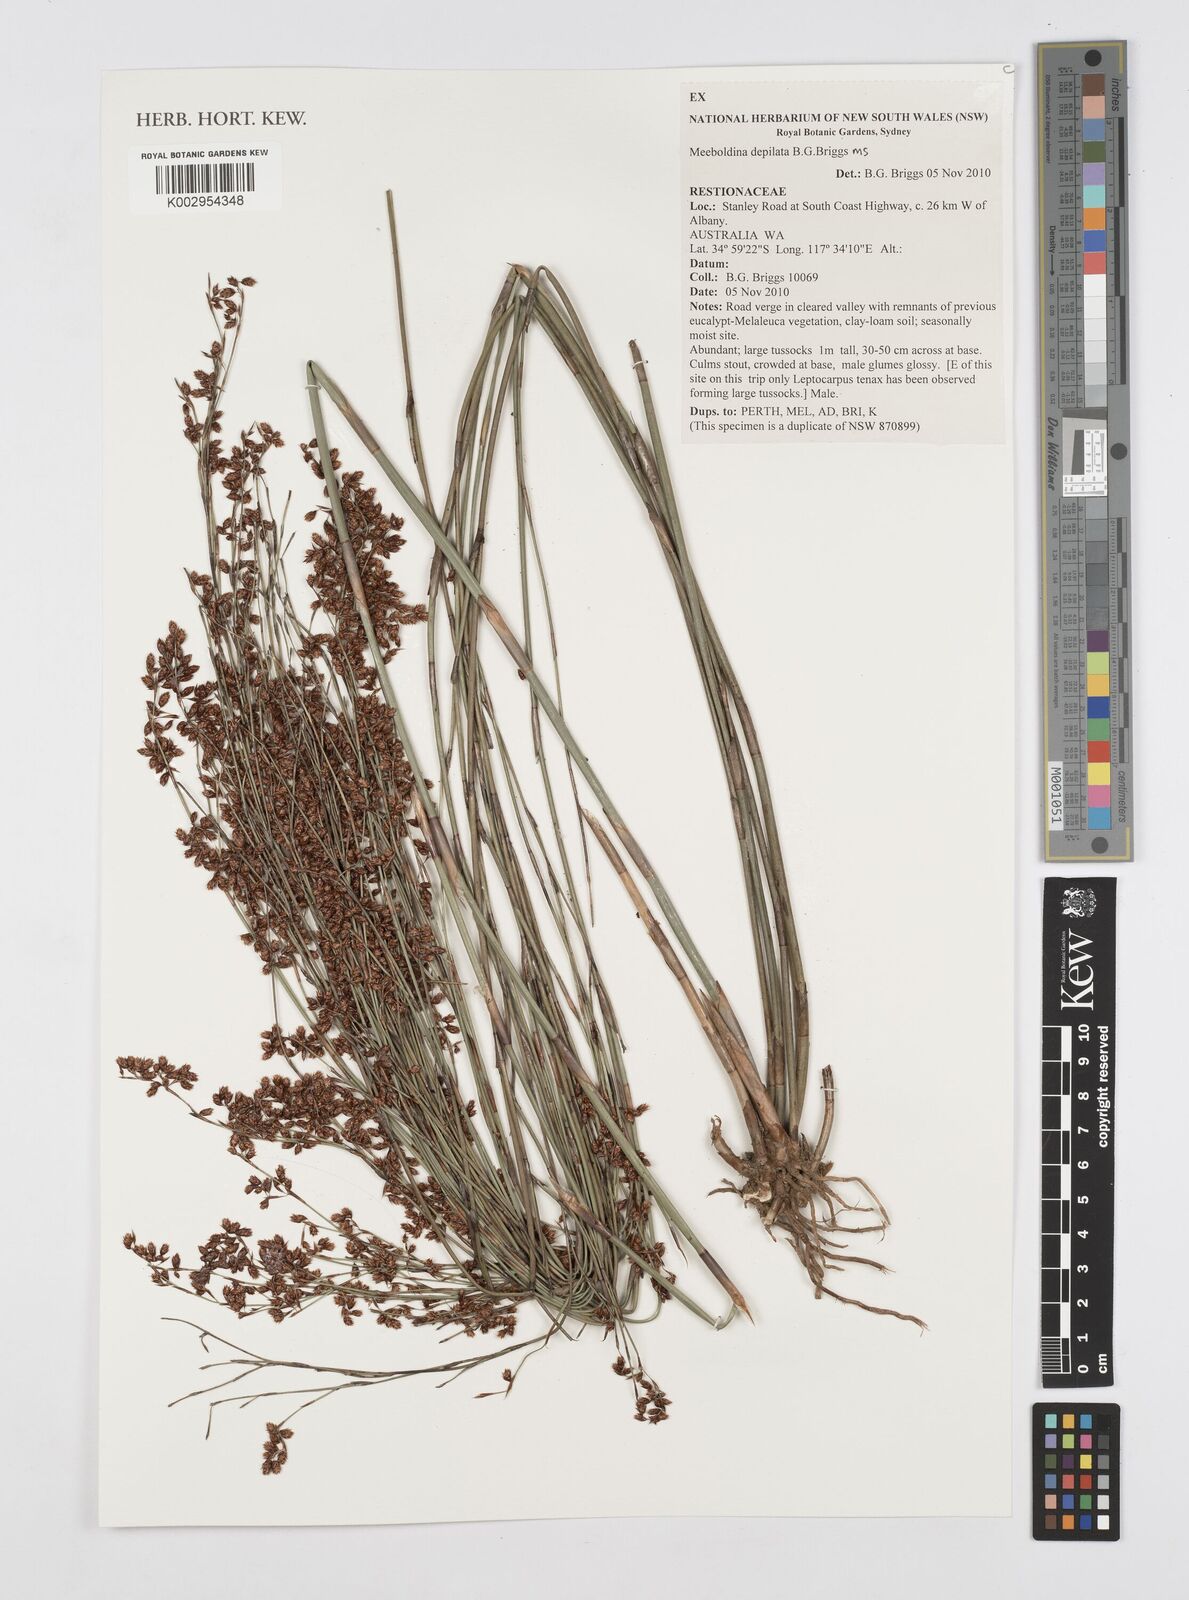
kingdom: Plantae
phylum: Tracheophyta
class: Liliopsida
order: Poales
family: Restionaceae
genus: Leptocarpus
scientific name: Leptocarpus depilatus
